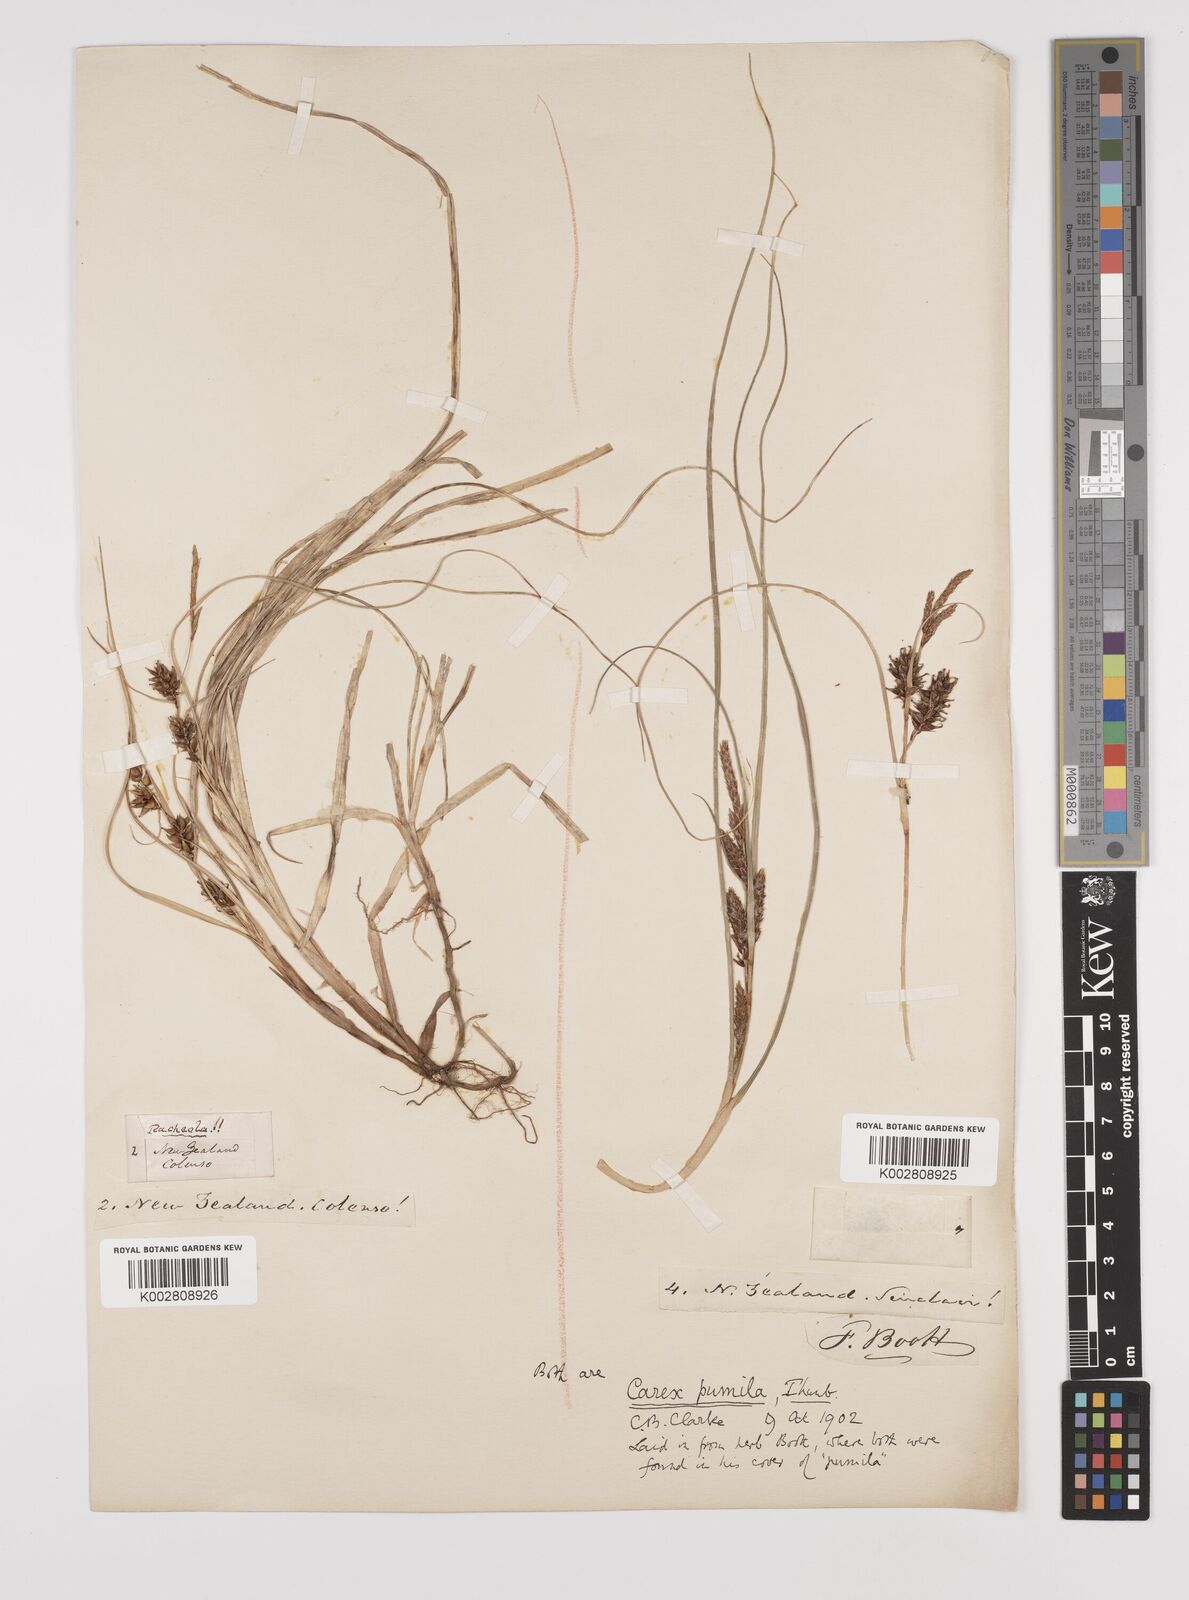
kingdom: Plantae
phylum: Tracheophyta
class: Liliopsida
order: Poales
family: Cyperaceae
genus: Carex
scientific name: Carex pumila
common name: Dwarf sedge
